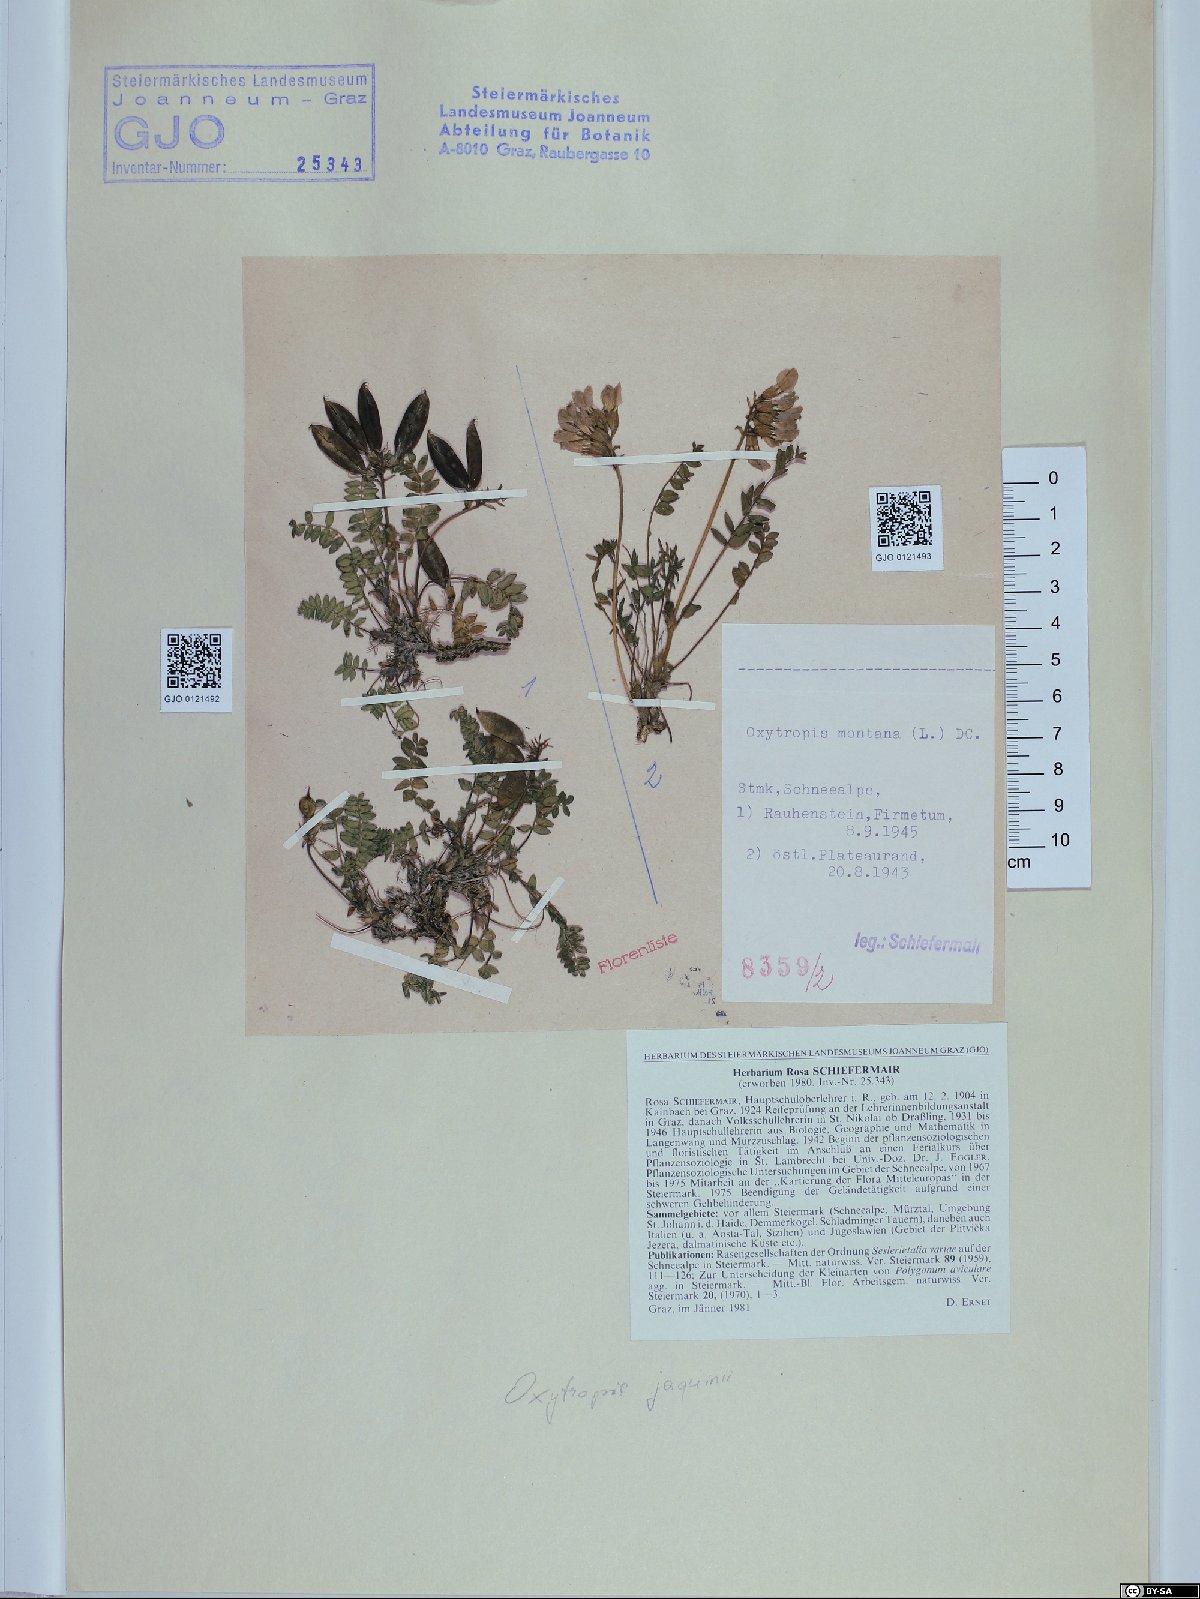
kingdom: Plantae
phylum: Tracheophyta
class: Magnoliopsida
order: Fabales
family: Fabaceae
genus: Oxytropis
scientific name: Oxytropis montana
